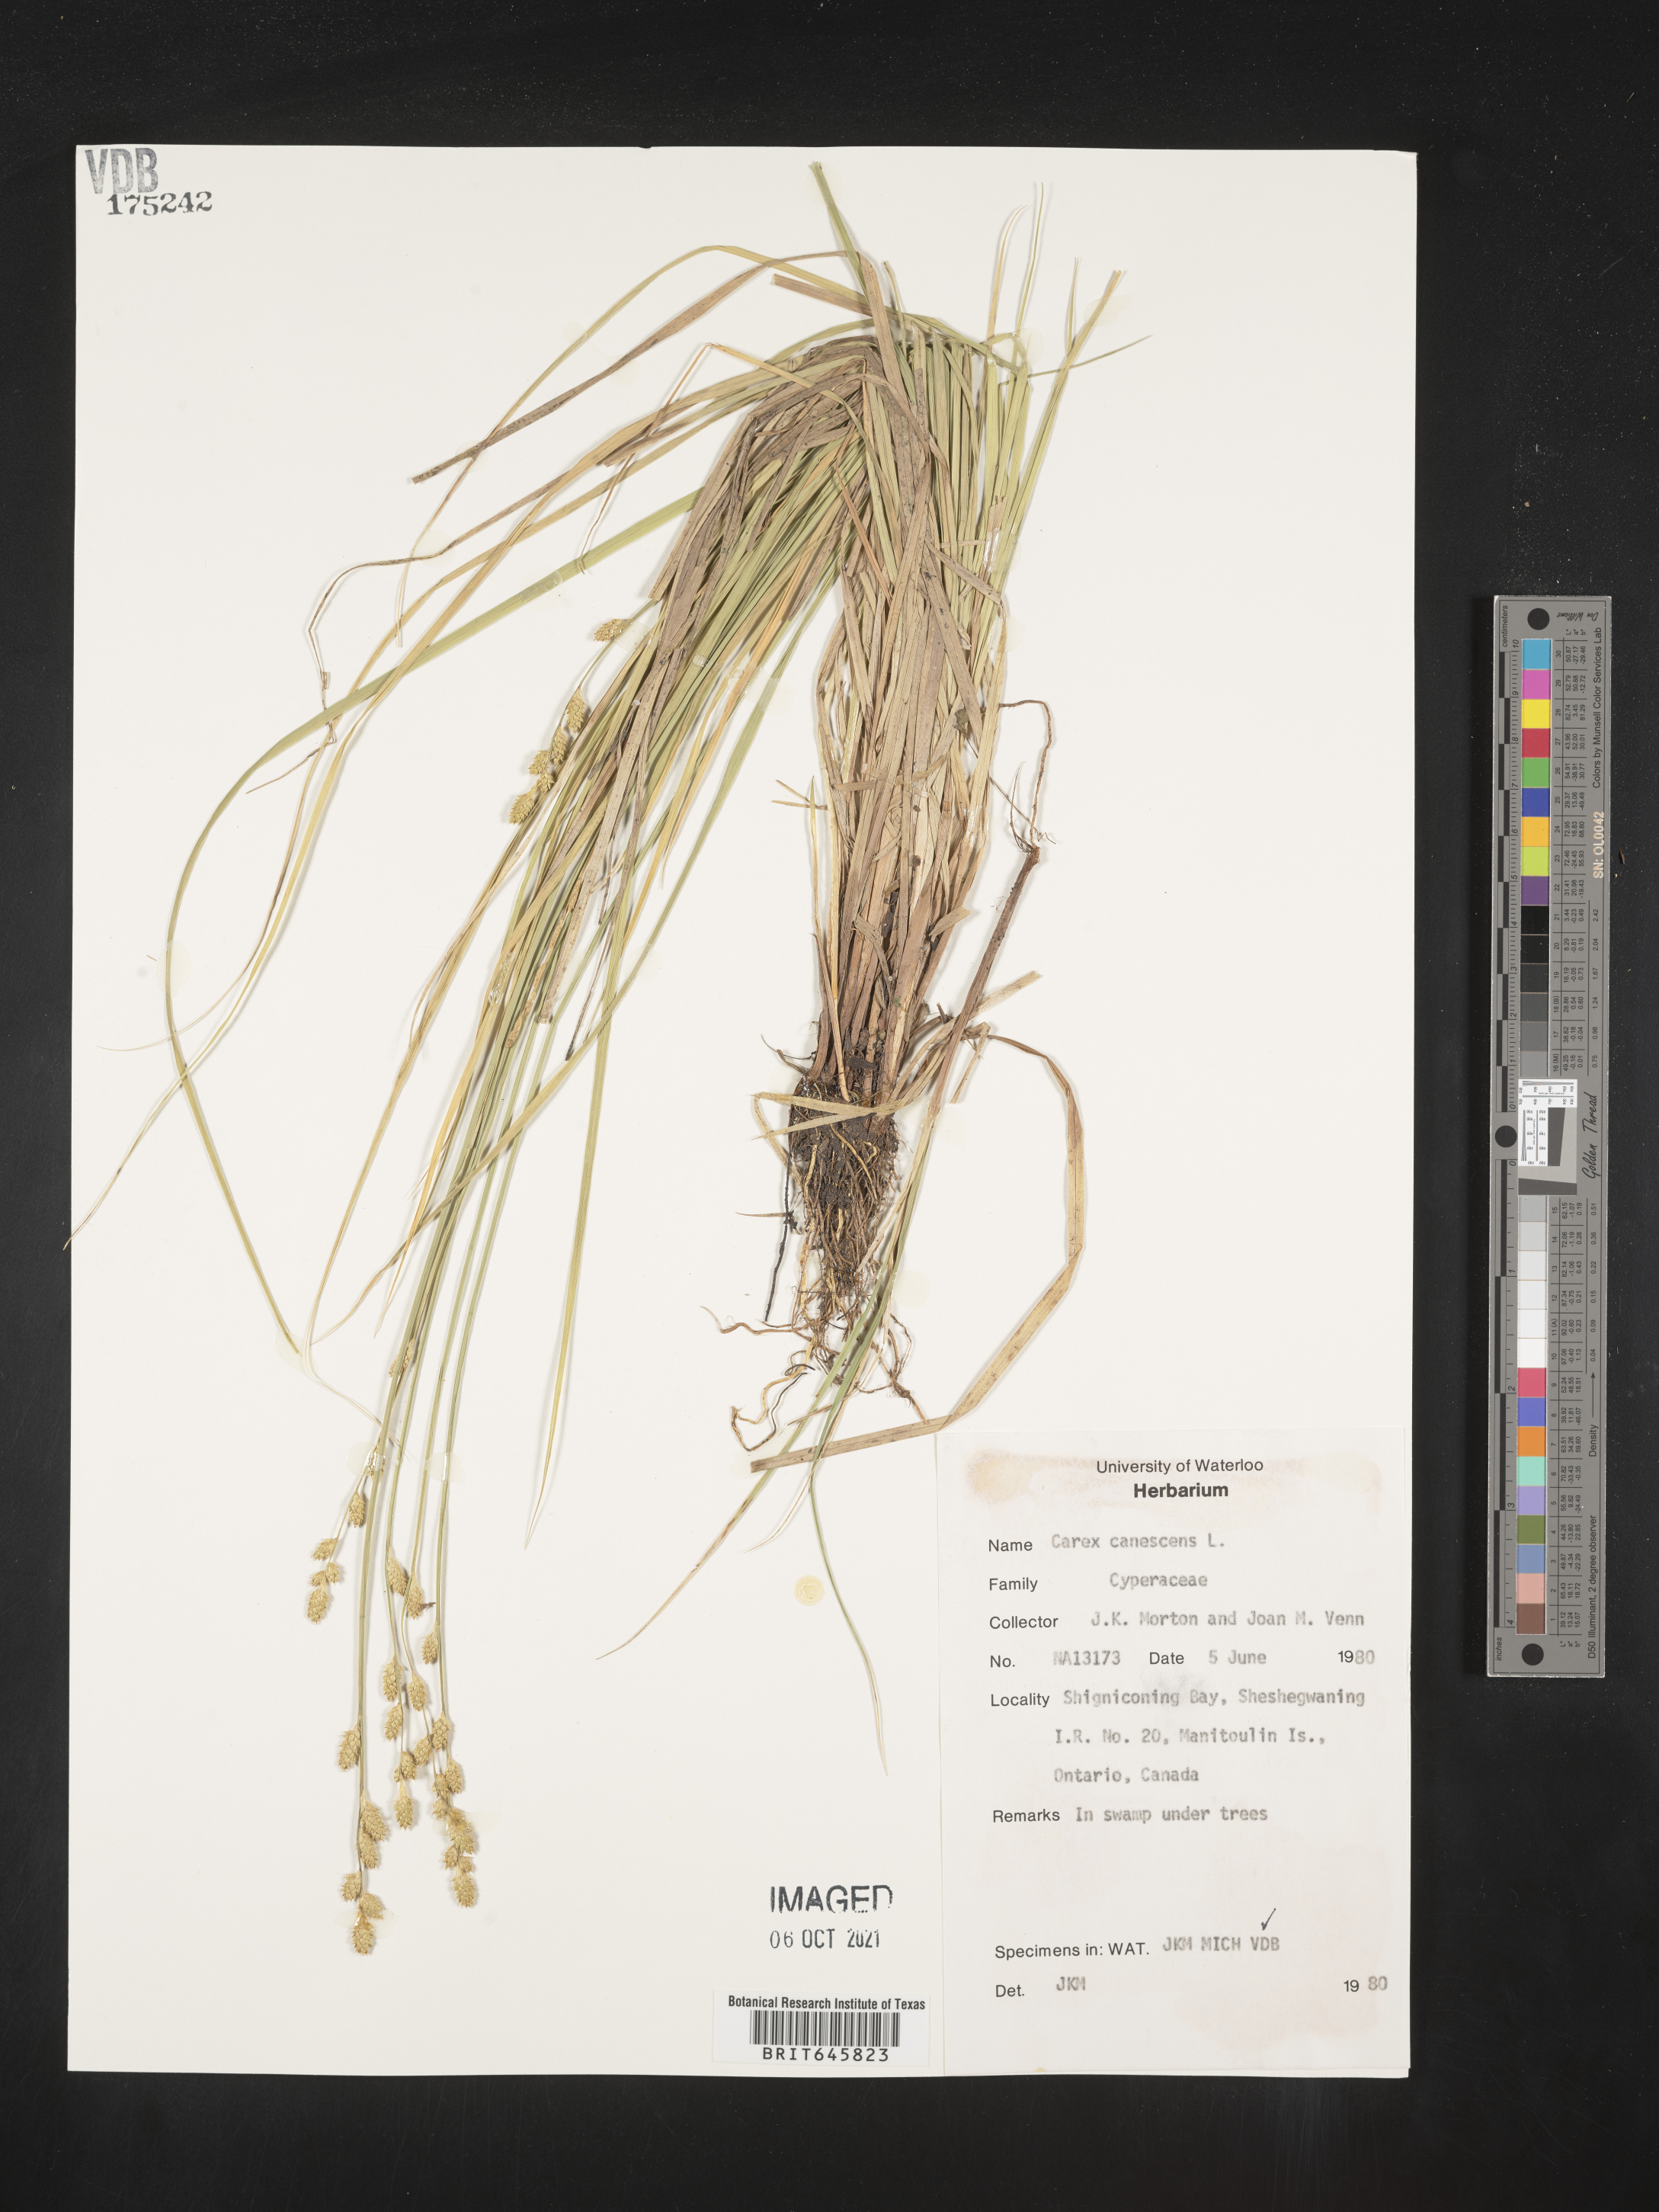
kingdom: Plantae
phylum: Tracheophyta
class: Liliopsida
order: Poales
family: Cyperaceae
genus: Carex
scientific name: Carex canescens
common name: White sedge
